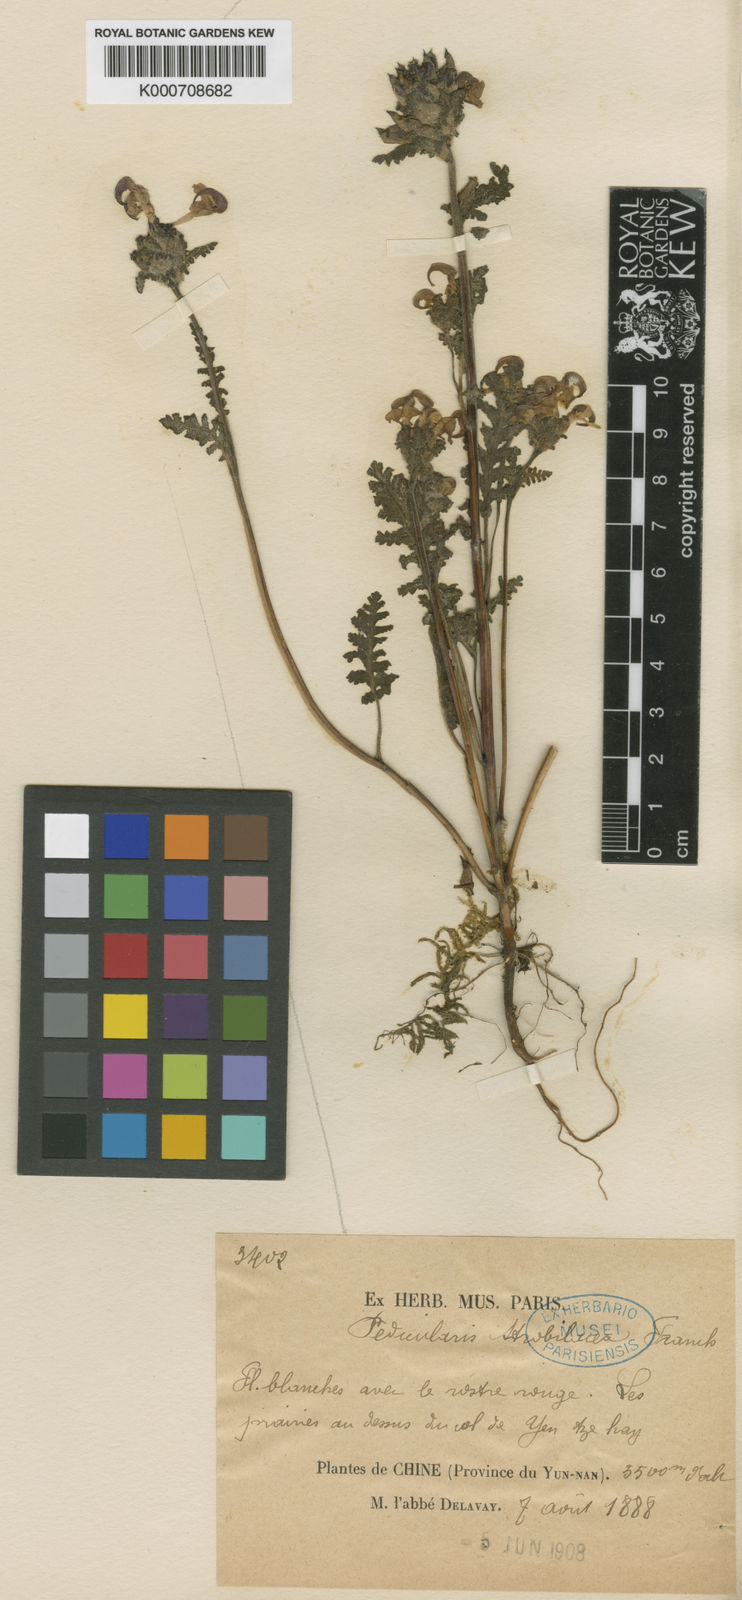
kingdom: Plantae
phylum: Tracheophyta
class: Magnoliopsida
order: Lamiales
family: Orobanchaceae
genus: Pedicularis
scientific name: Pedicularis
